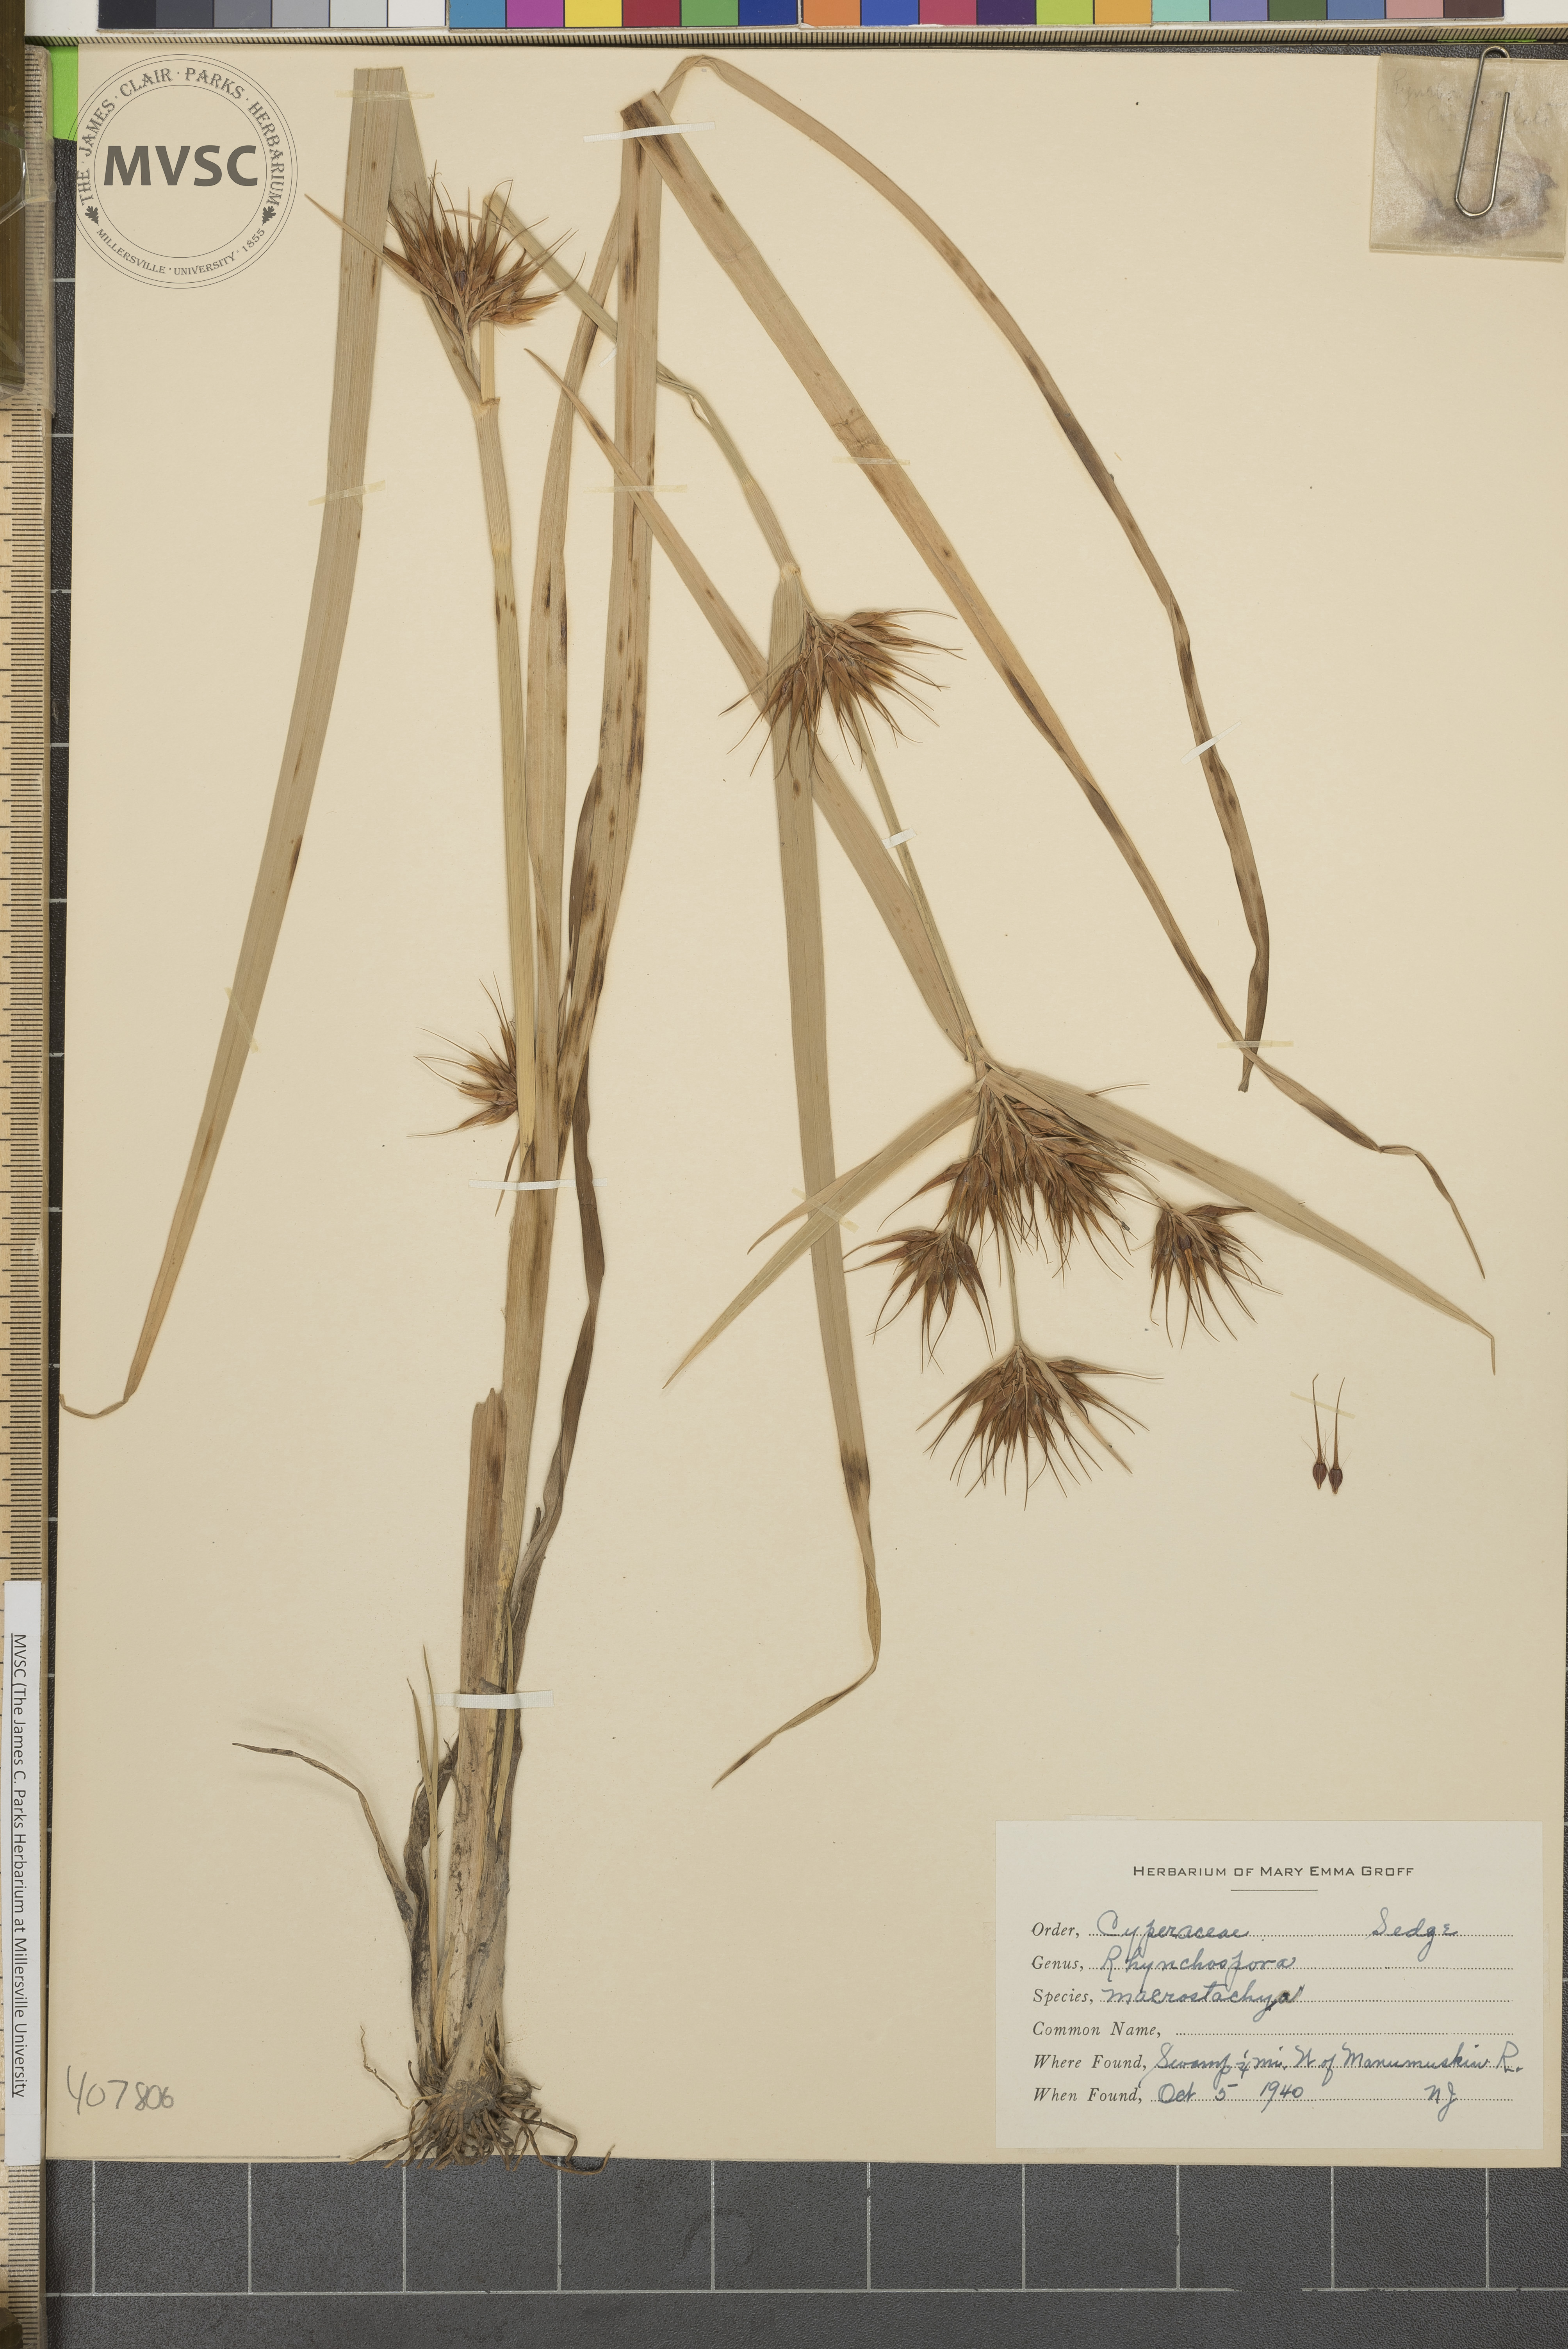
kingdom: Plantae
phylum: Tracheophyta
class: Liliopsida
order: Poales
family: Cyperaceae
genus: Rhynchospora
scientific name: Rhynchospora macrostachya
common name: Tall beakrush
